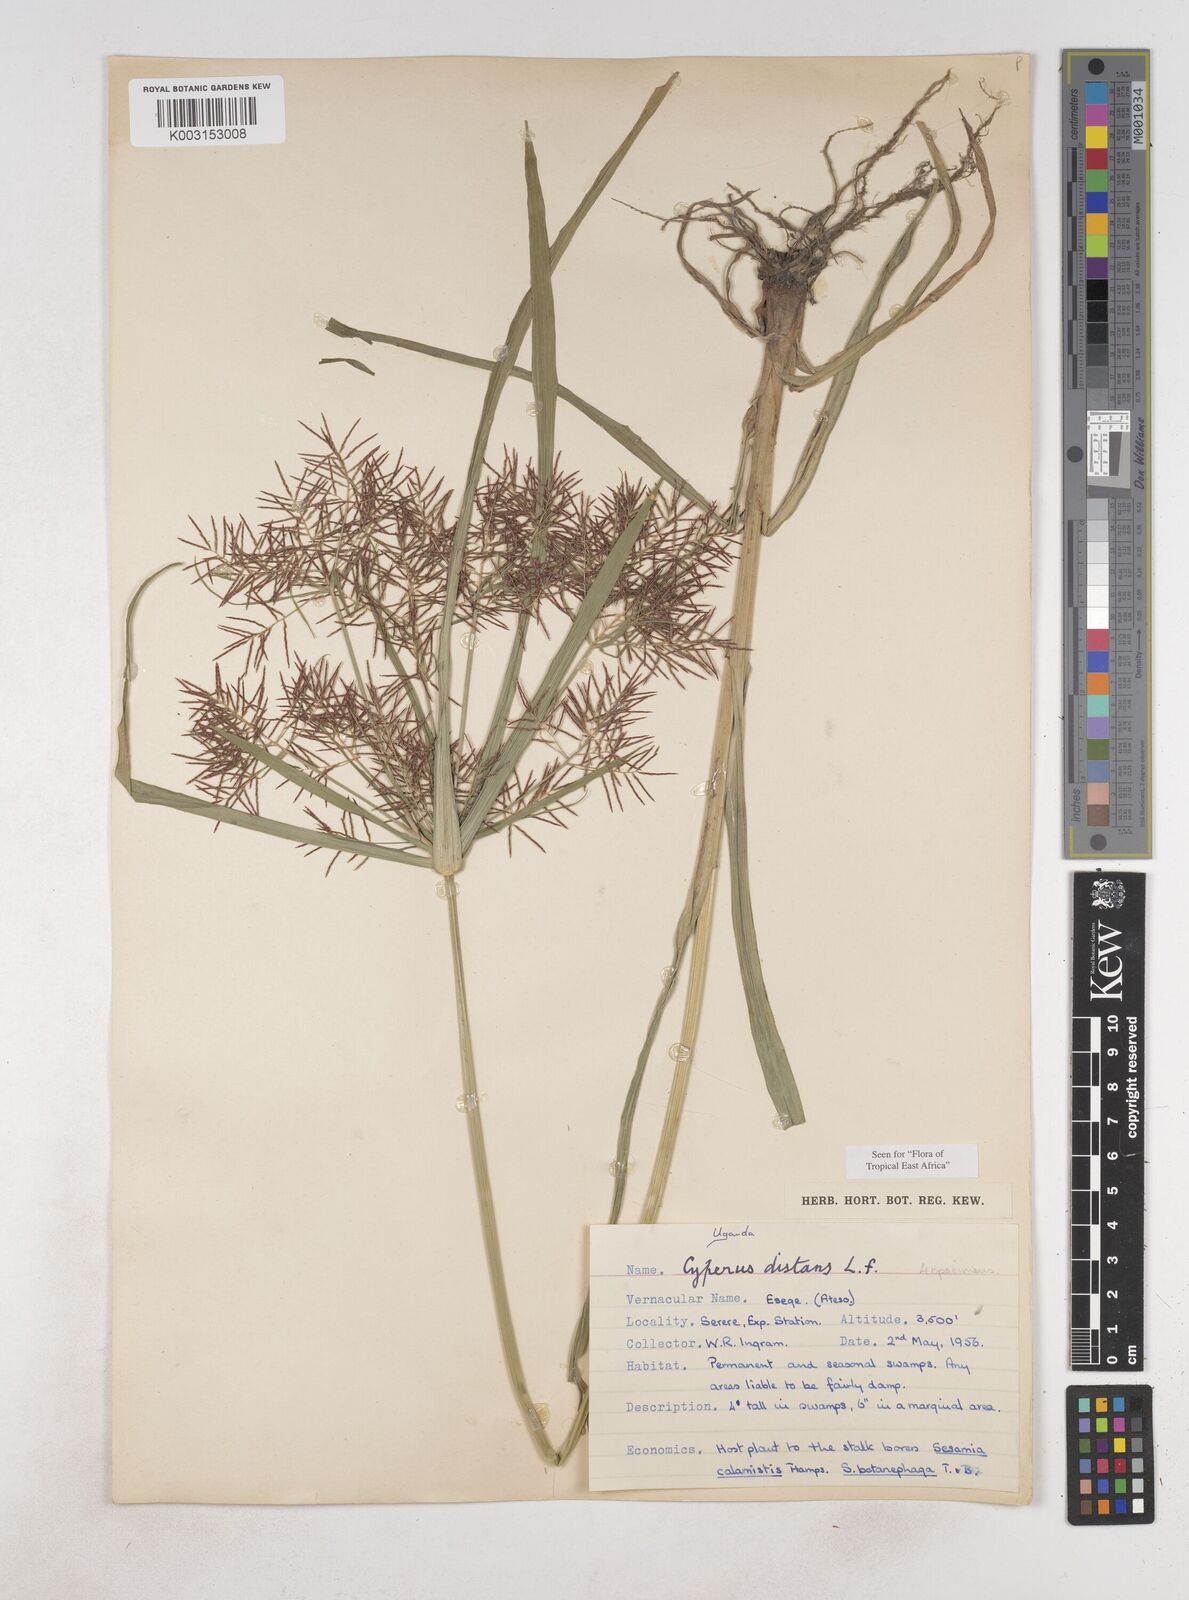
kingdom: Plantae
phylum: Tracheophyta
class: Liliopsida
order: Poales
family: Cyperaceae
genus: Cyperus
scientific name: Cyperus distans
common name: Slender cyperus
